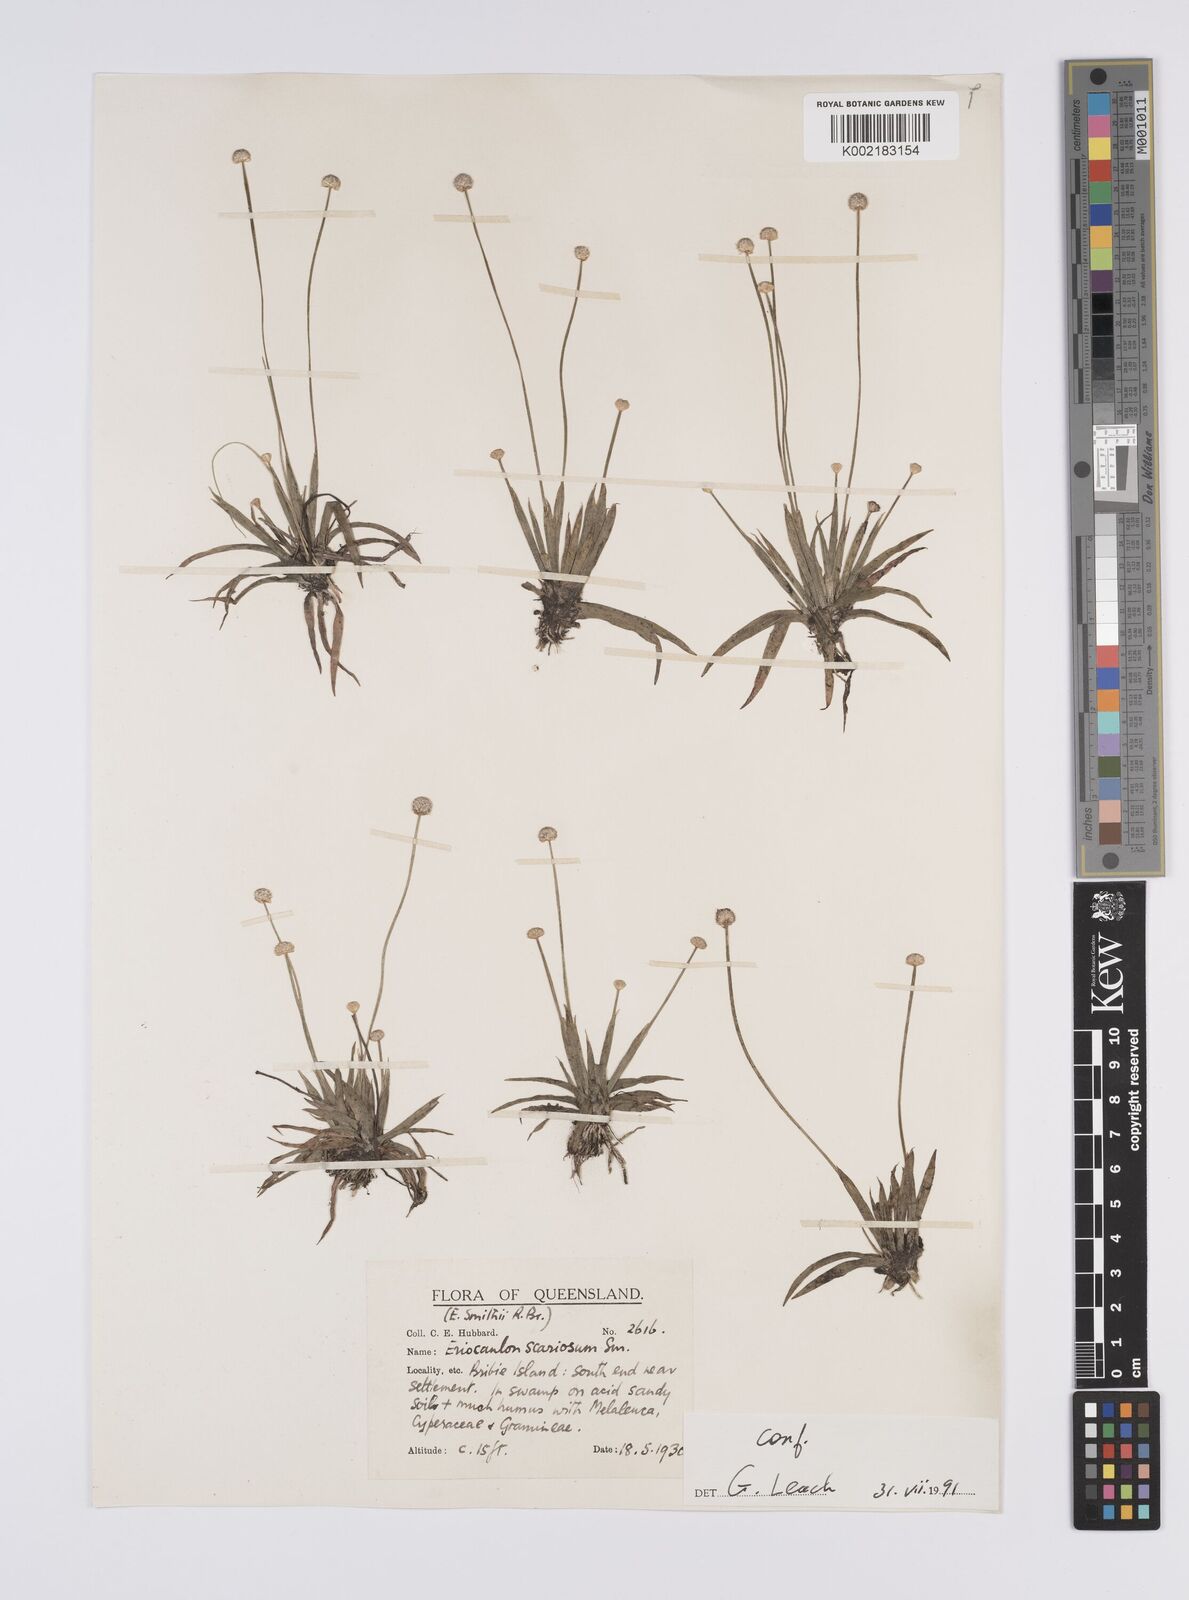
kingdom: Plantae
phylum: Tracheophyta
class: Liliopsida
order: Poales
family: Eriocaulaceae
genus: Eriocaulon
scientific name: Eriocaulon scariosum
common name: Rough pipewort
